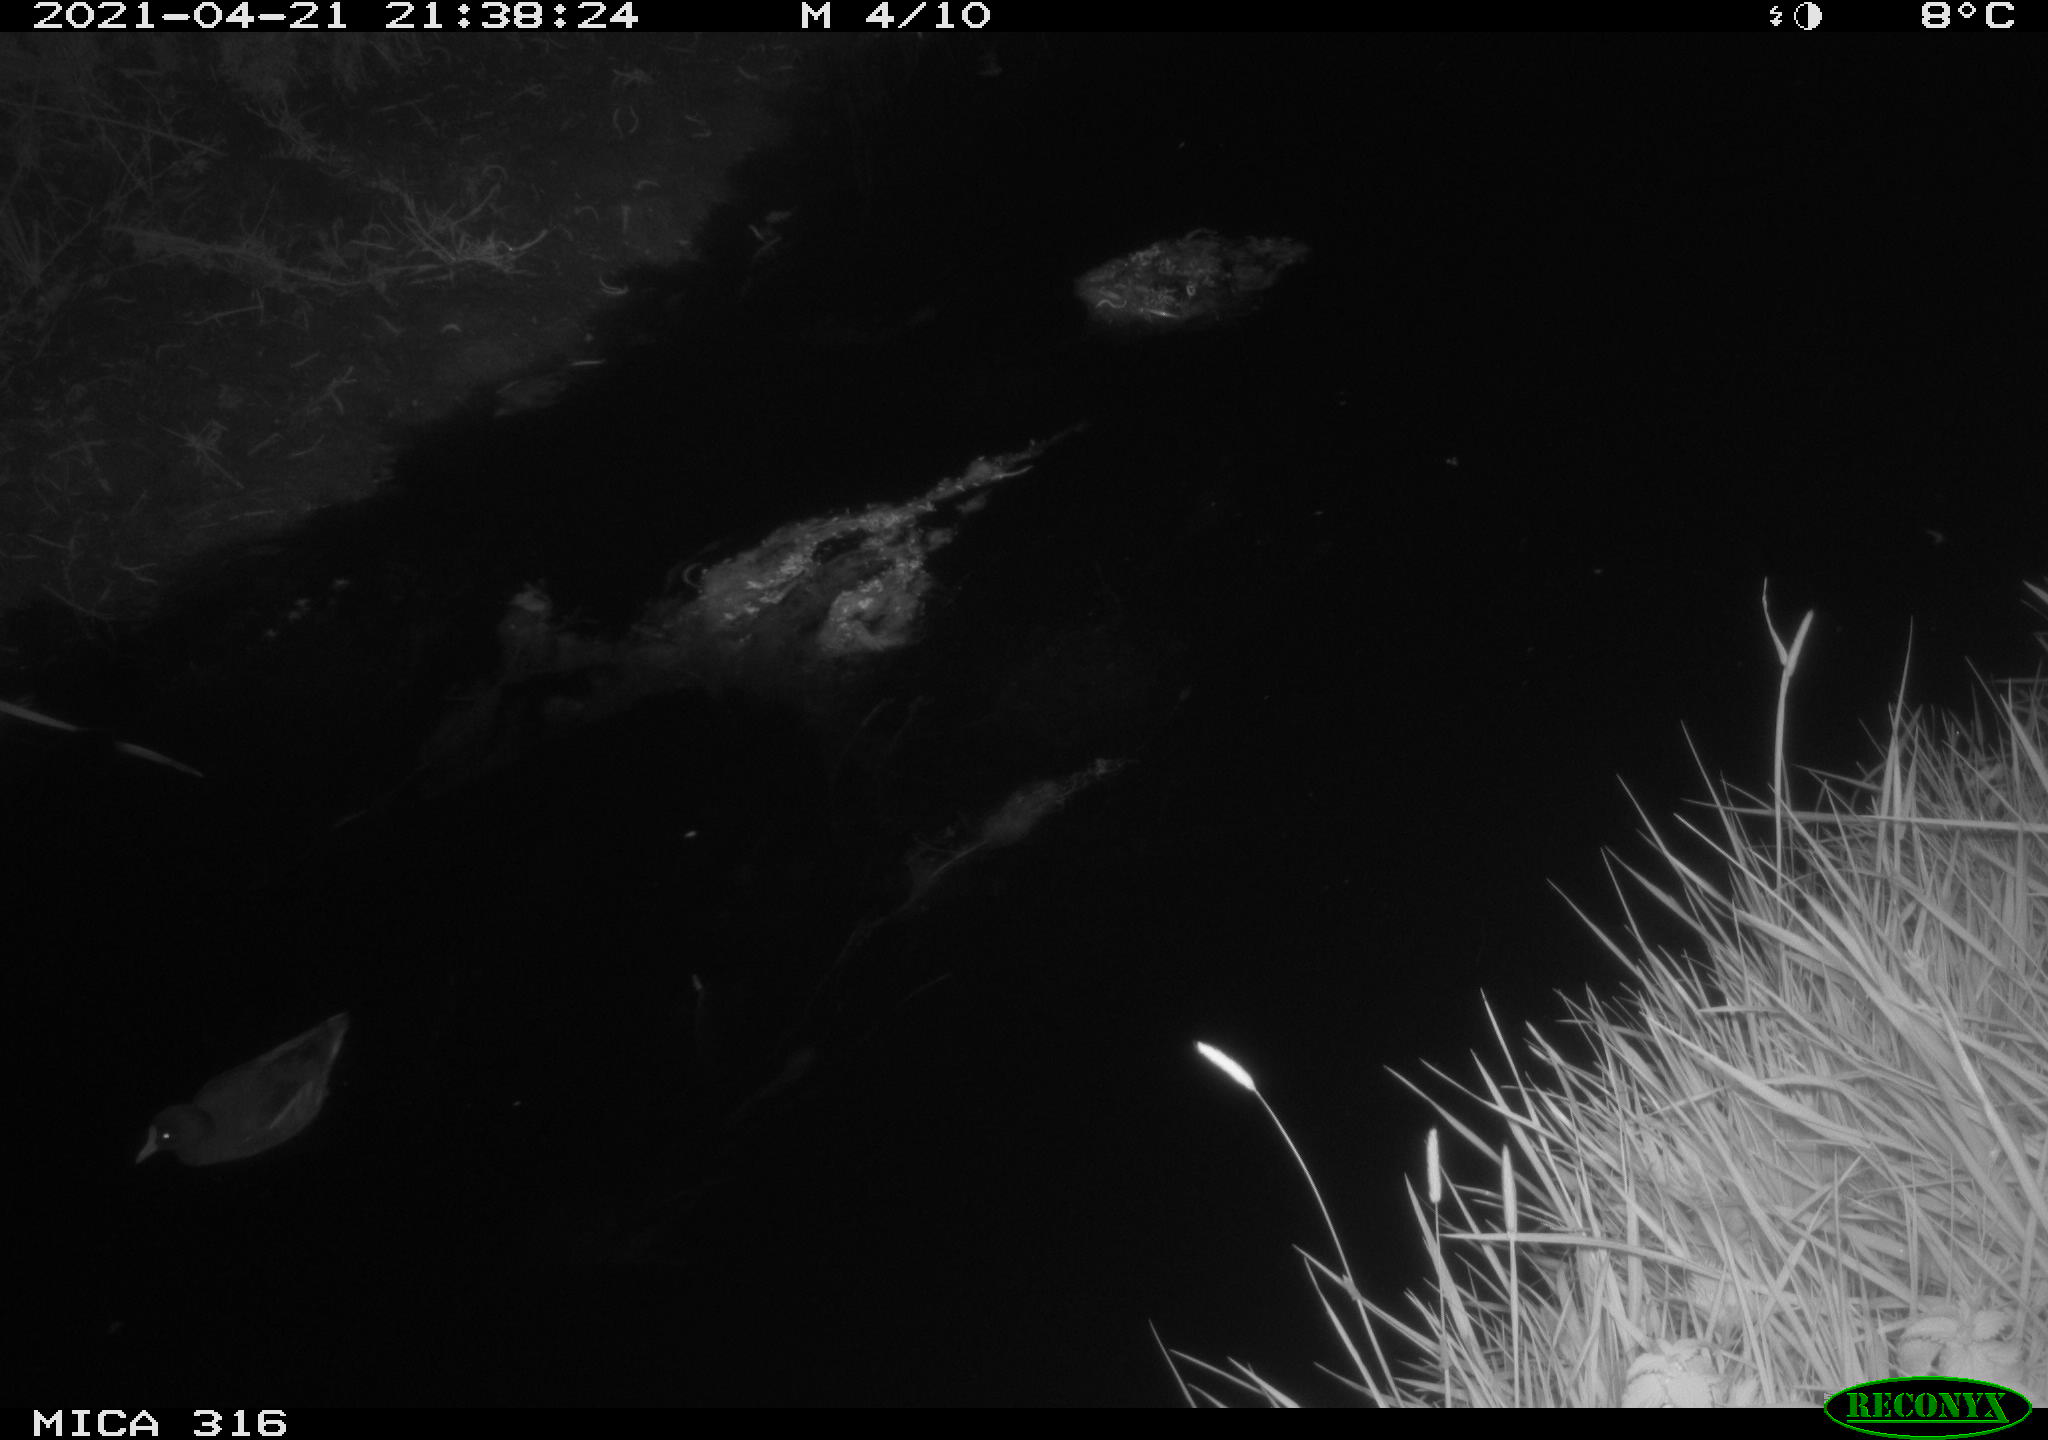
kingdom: Animalia
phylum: Chordata
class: Aves
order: Gruiformes
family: Rallidae
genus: Gallinula
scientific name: Gallinula chloropus
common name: Common moorhen
